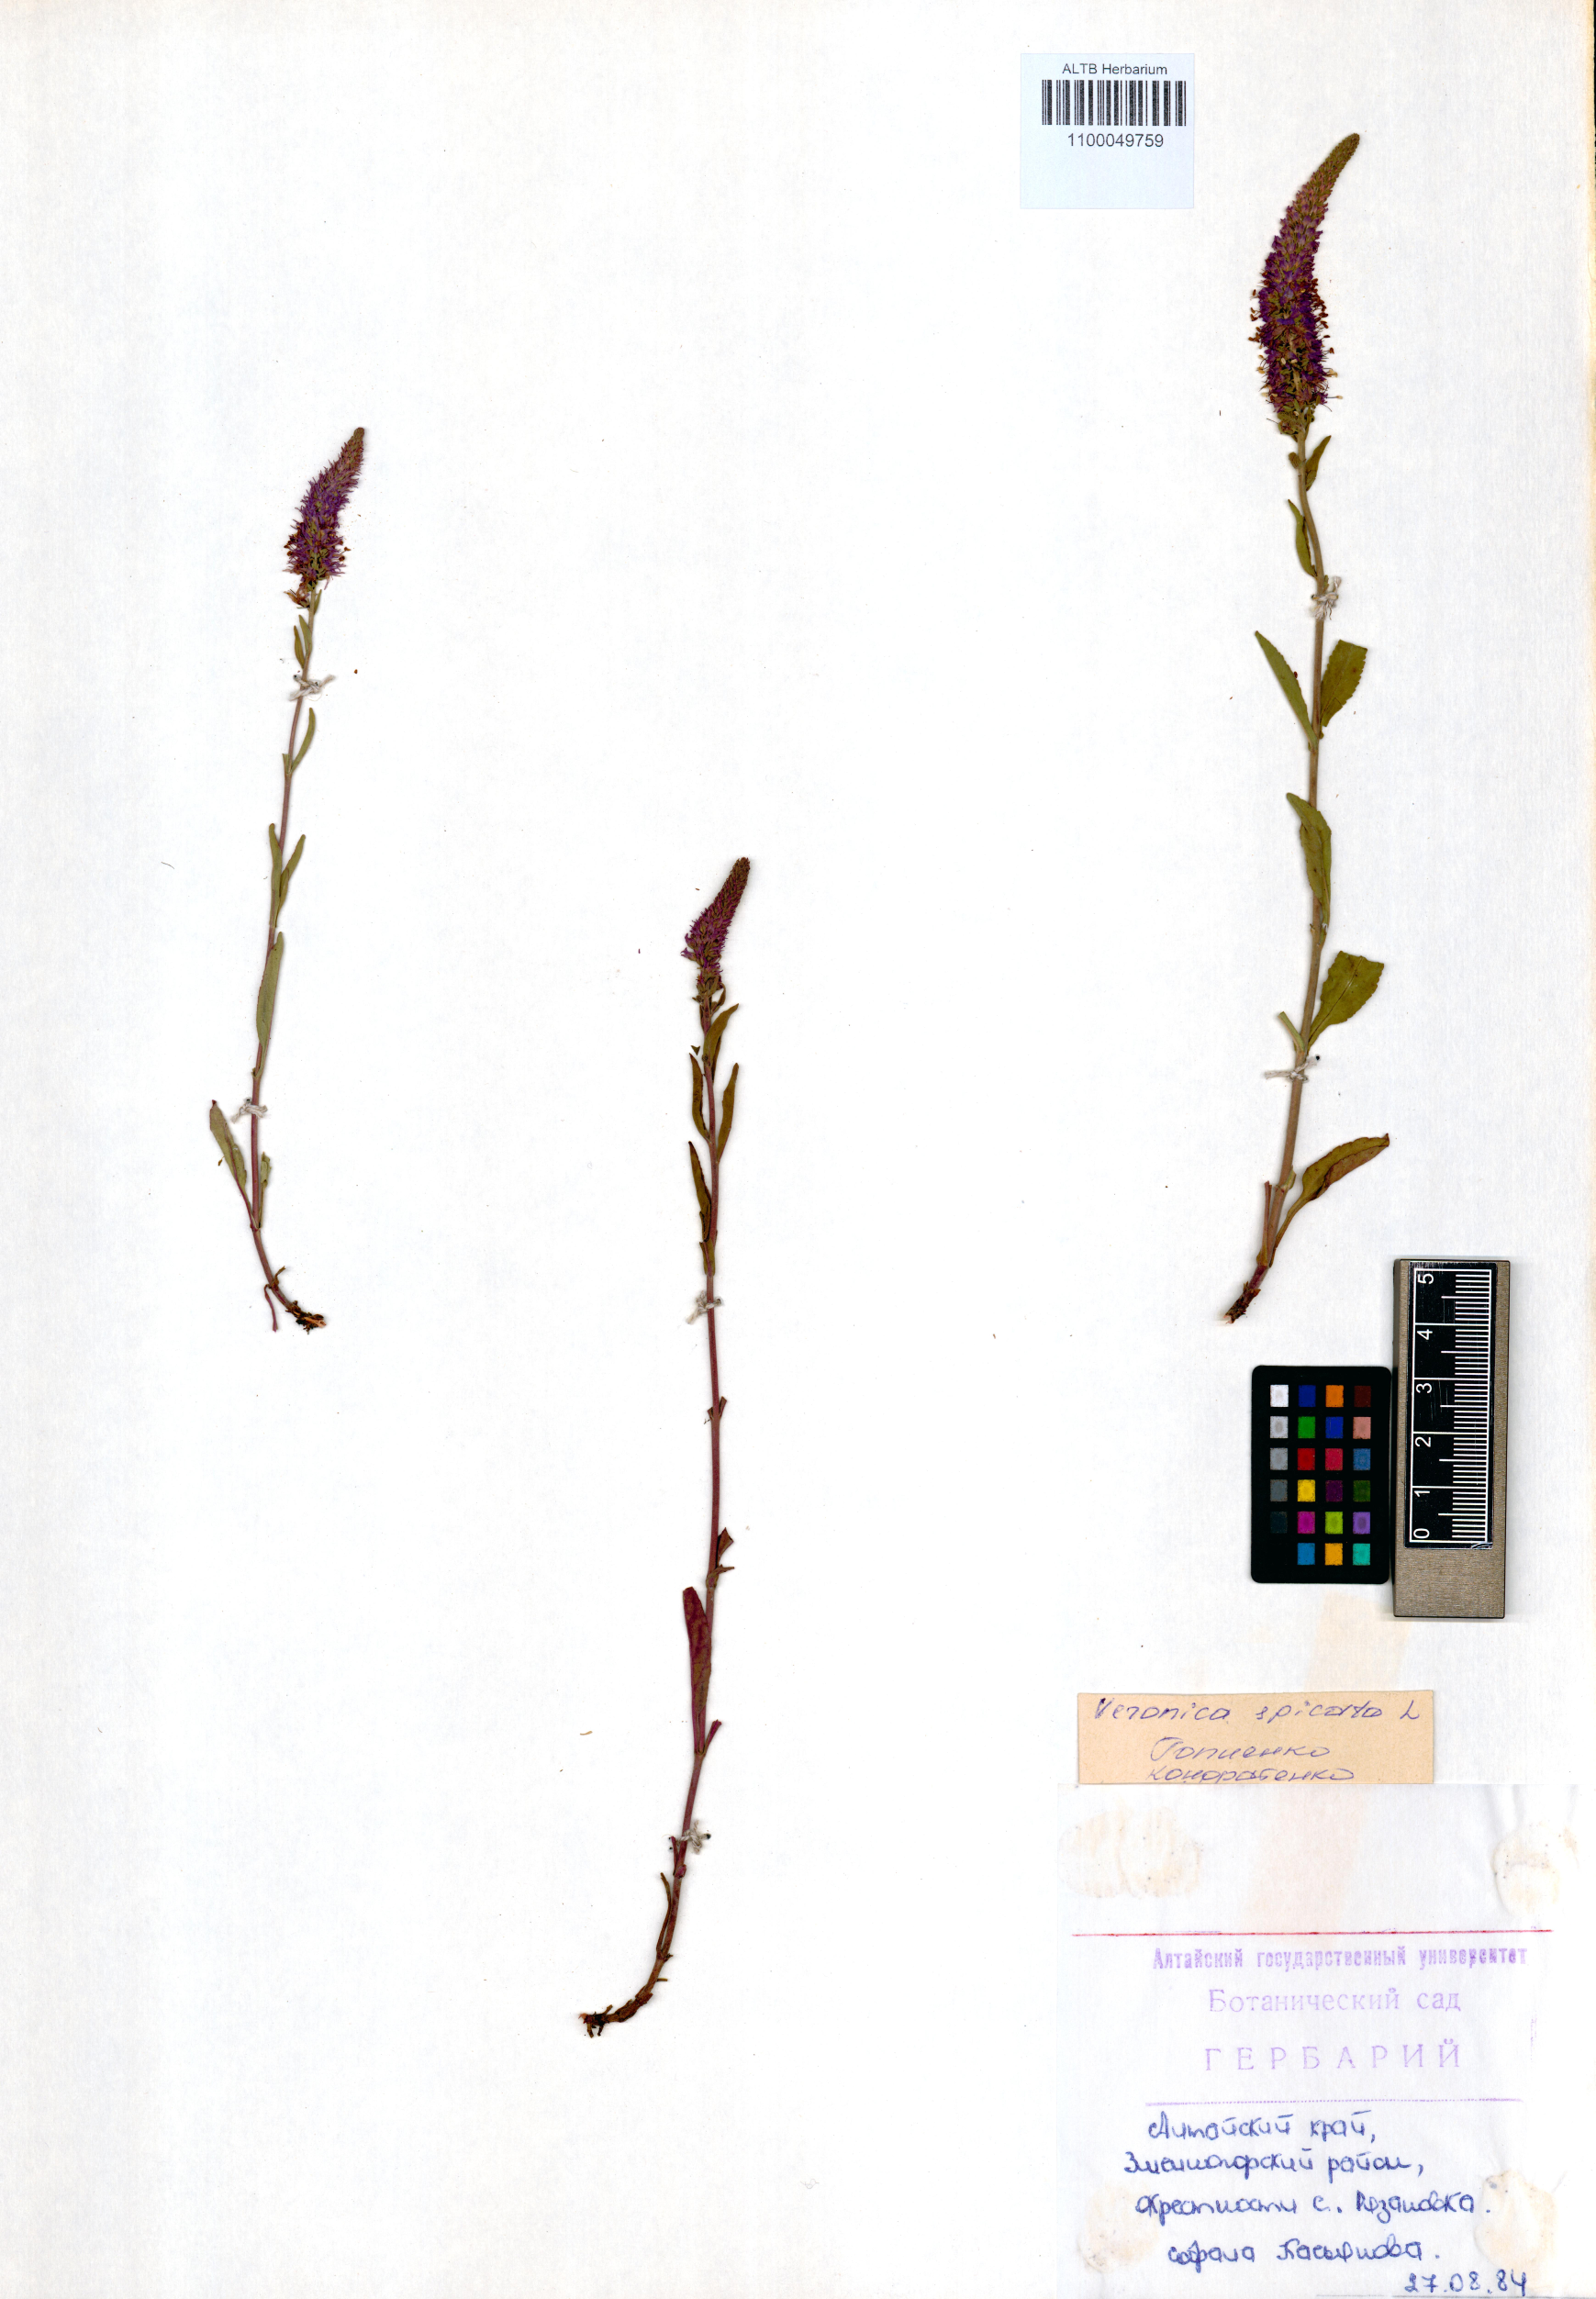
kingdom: Plantae
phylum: Tracheophyta
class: Magnoliopsida
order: Lamiales
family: Plantaginaceae
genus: Veronica
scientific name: Veronica spicata
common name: Spiked speedwell
